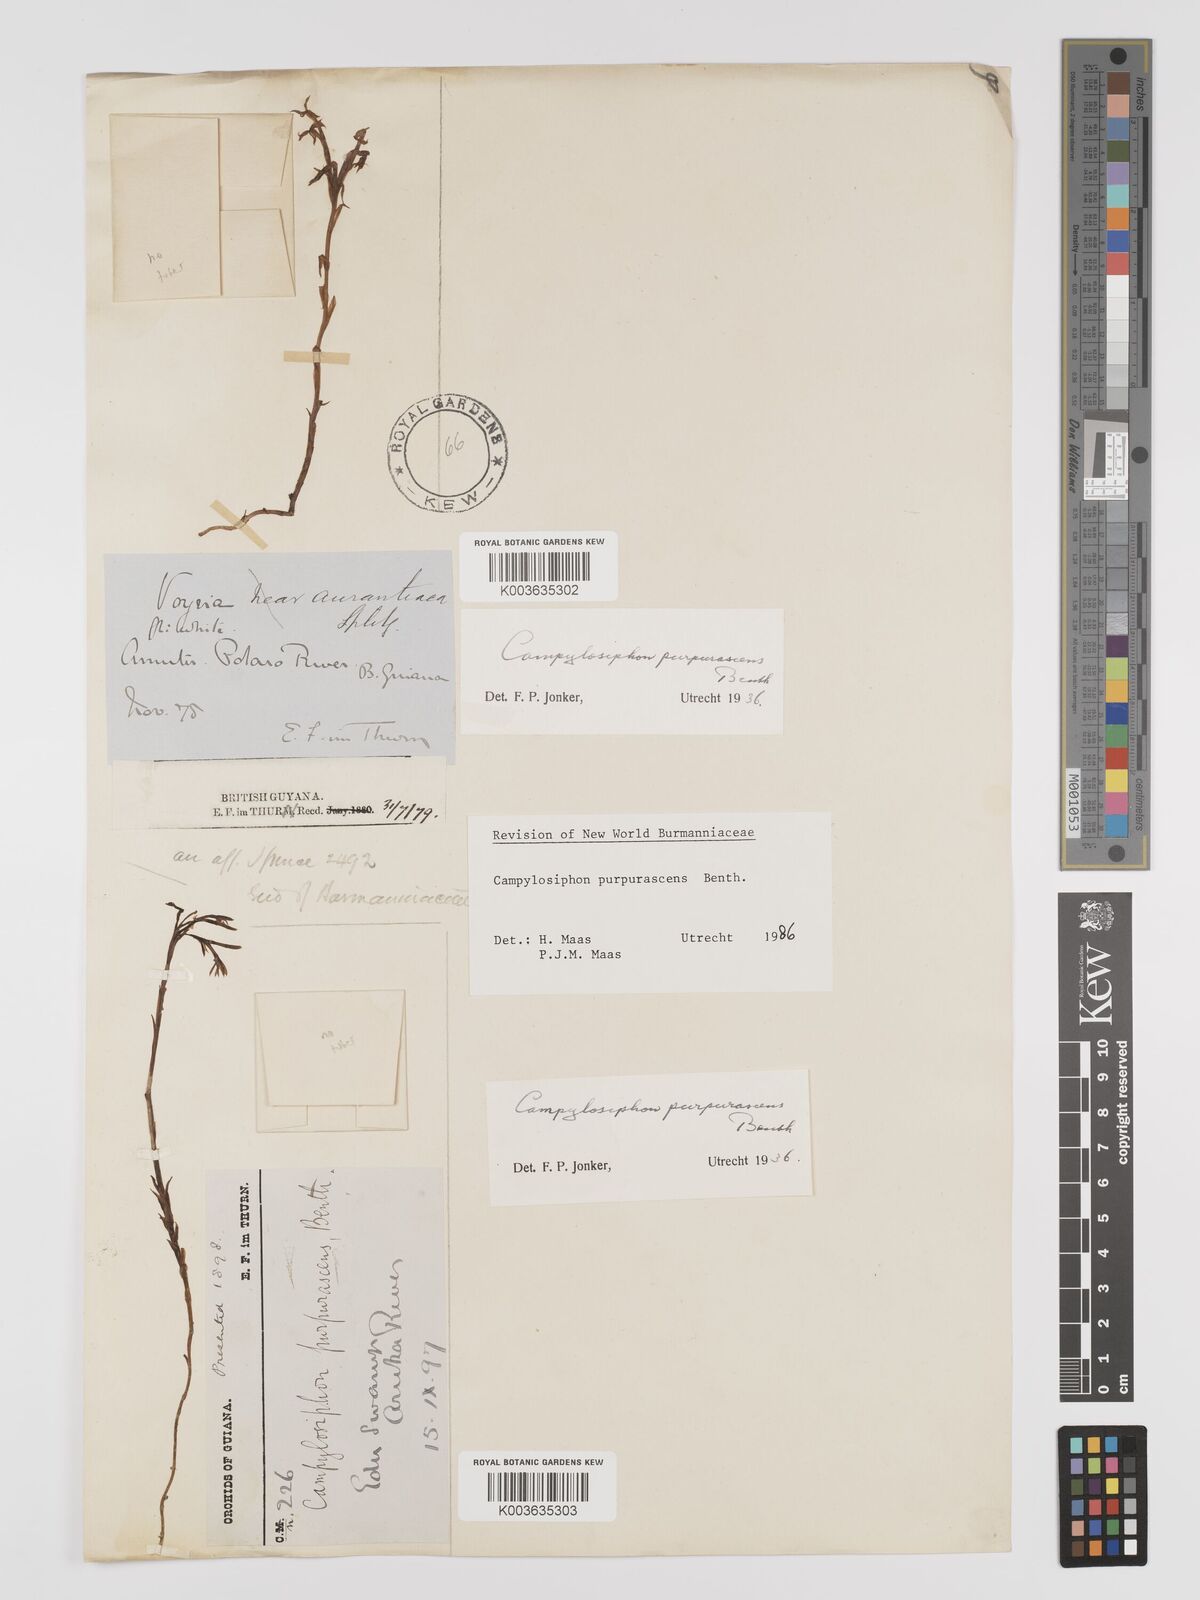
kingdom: Plantae
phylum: Tracheophyta
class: Liliopsida
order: Dioscoreales
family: Burmanniaceae
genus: Campylosiphon
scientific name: Campylosiphon purpurascens
